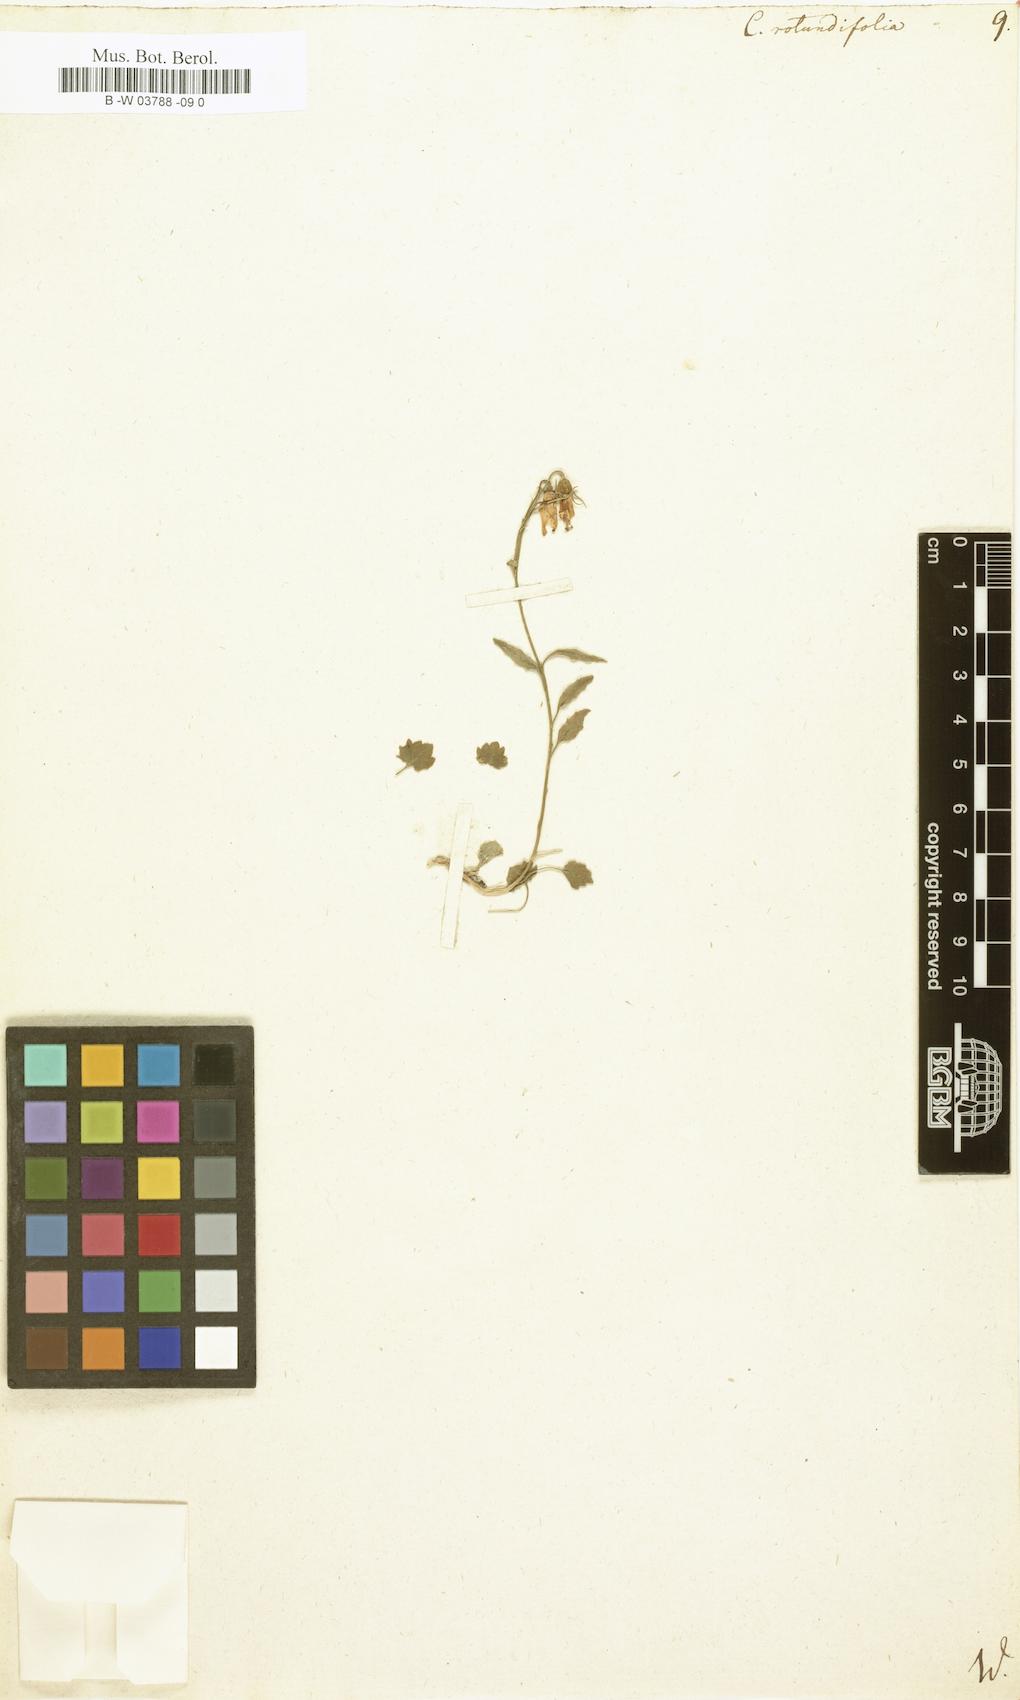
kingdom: Plantae
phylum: Tracheophyta
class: Magnoliopsida
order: Asterales
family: Campanulaceae
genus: Campanula
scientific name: Campanula rotundifolia
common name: Harebell
